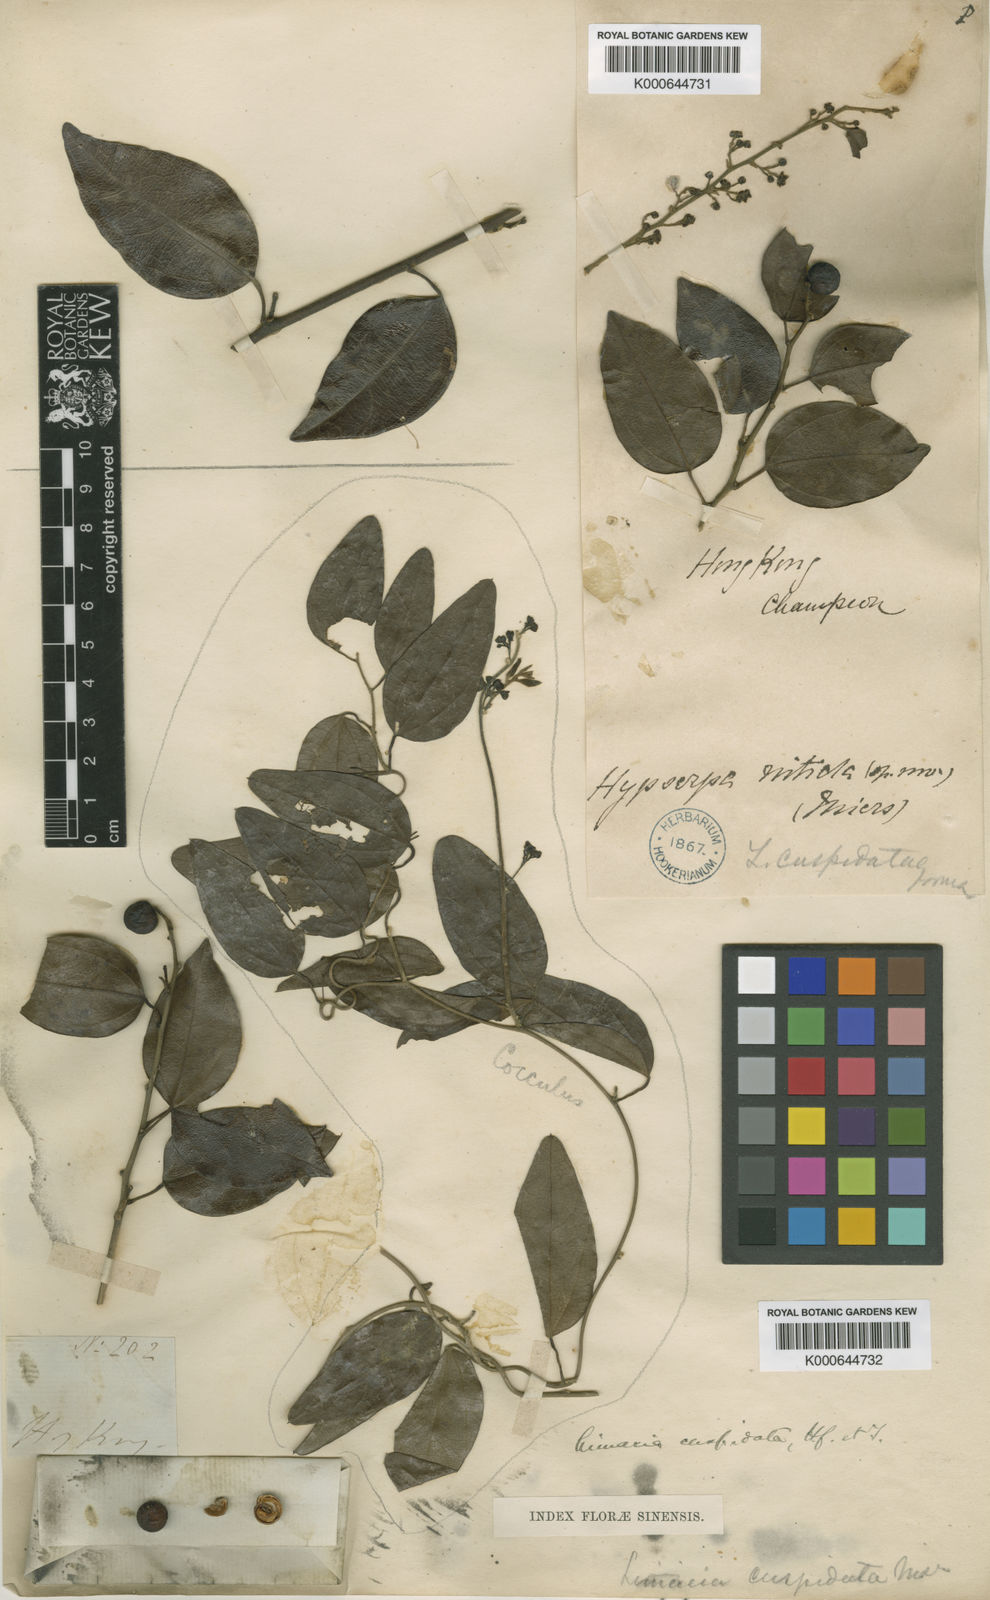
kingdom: Plantae
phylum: Tracheophyta
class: Magnoliopsida
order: Ranunculales
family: Menispermaceae
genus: Hypserpa
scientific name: Hypserpa
